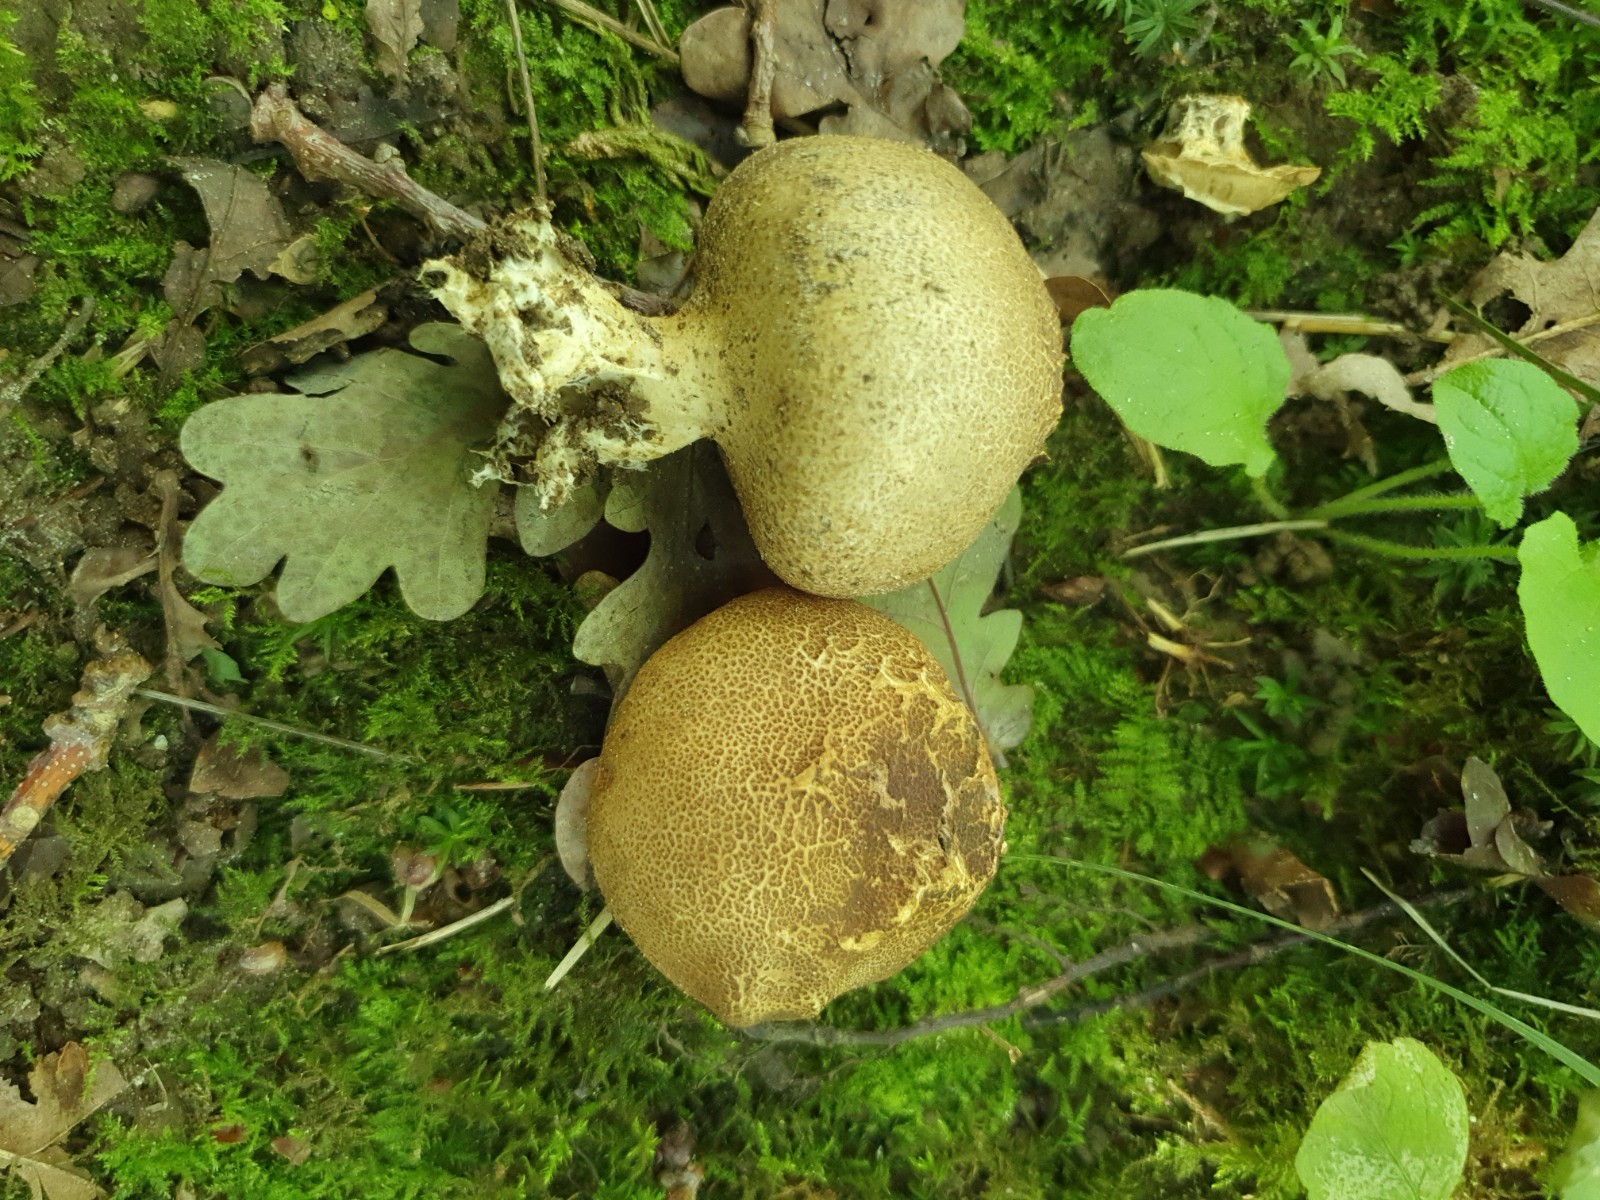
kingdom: Fungi
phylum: Basidiomycota
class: Agaricomycetes
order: Boletales
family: Sclerodermataceae
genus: Scleroderma
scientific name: Scleroderma verrucosum
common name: stilket bruskbold
